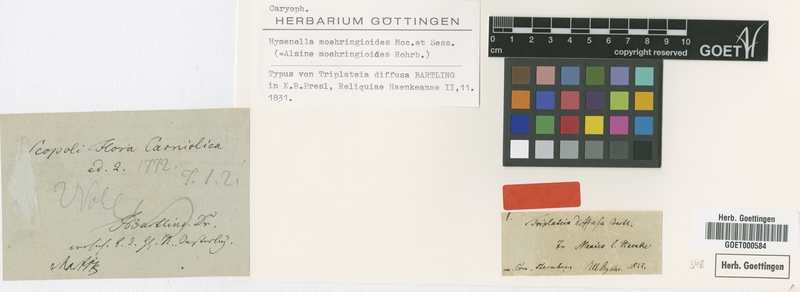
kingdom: Plantae
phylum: Tracheophyta
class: Magnoliopsida
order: Caryophyllales
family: Caryophyllaceae
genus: Triplateia
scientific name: Triplateia moehringiodes
